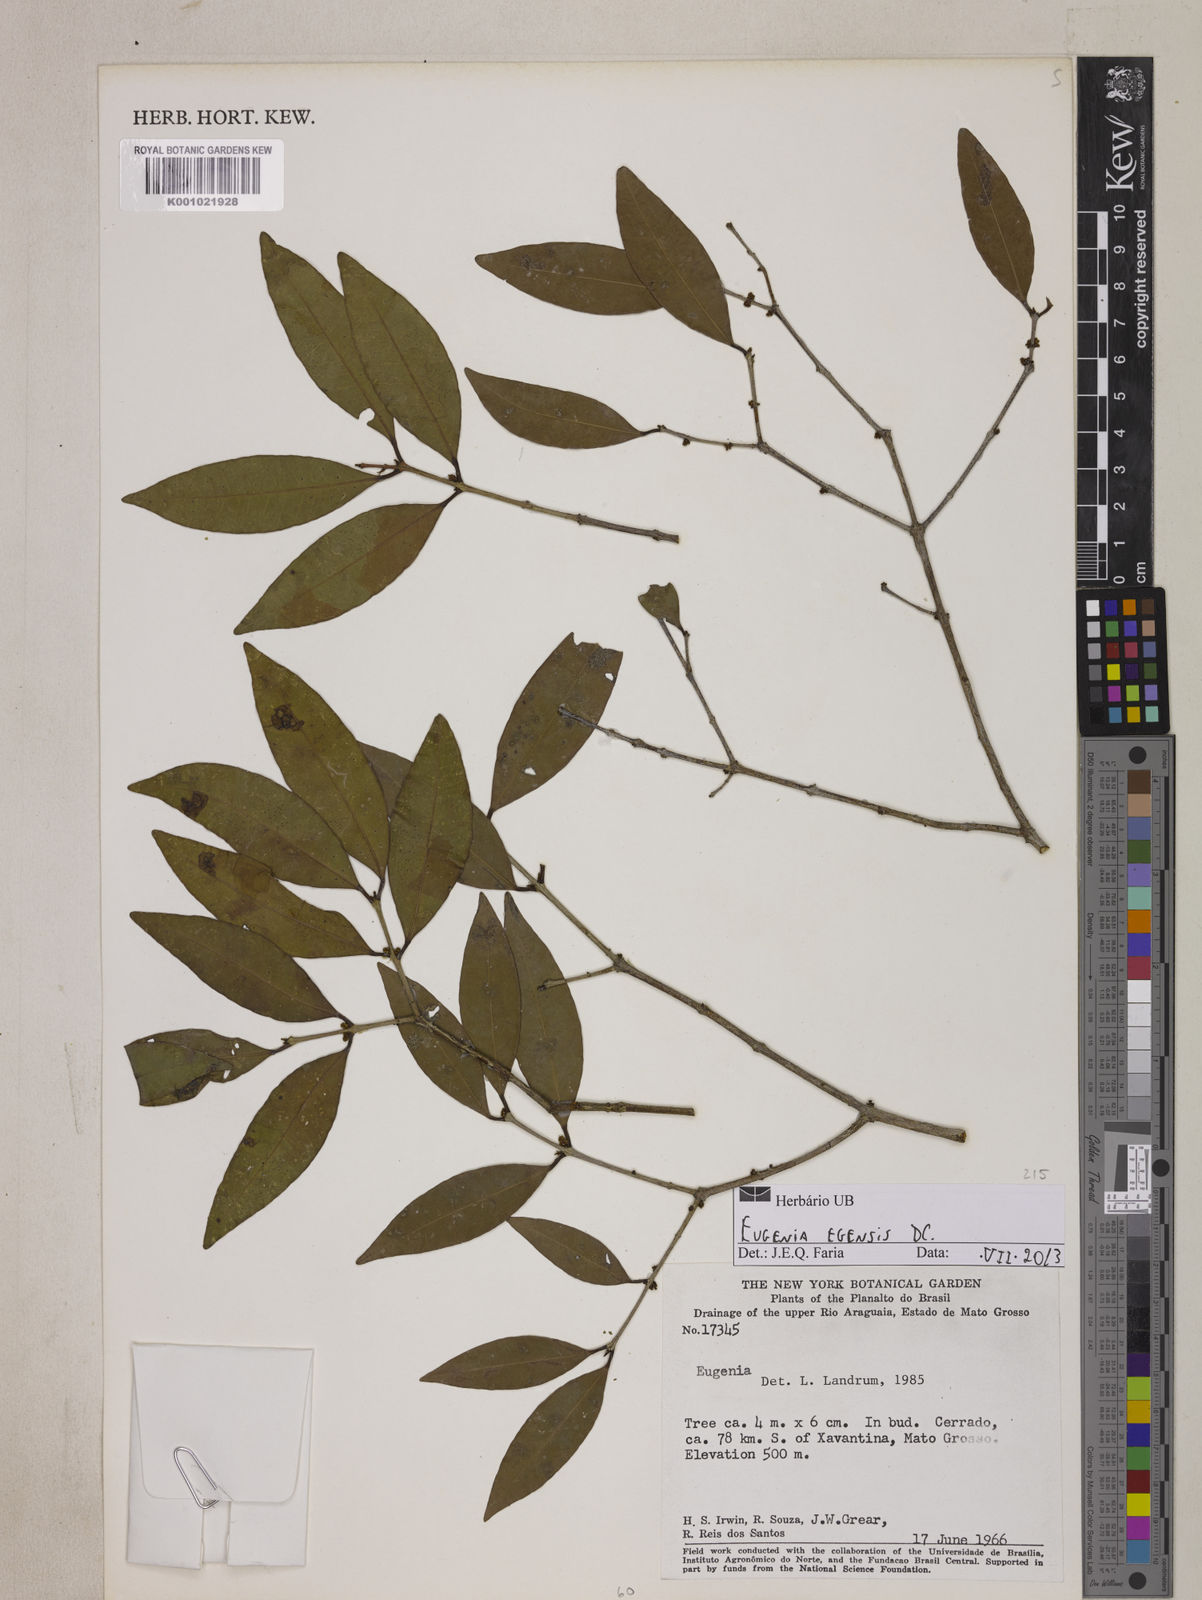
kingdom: Plantae
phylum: Tracheophyta
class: Magnoliopsida
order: Myrtales
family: Myrtaceae
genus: Eugenia
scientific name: Eugenia egensis
